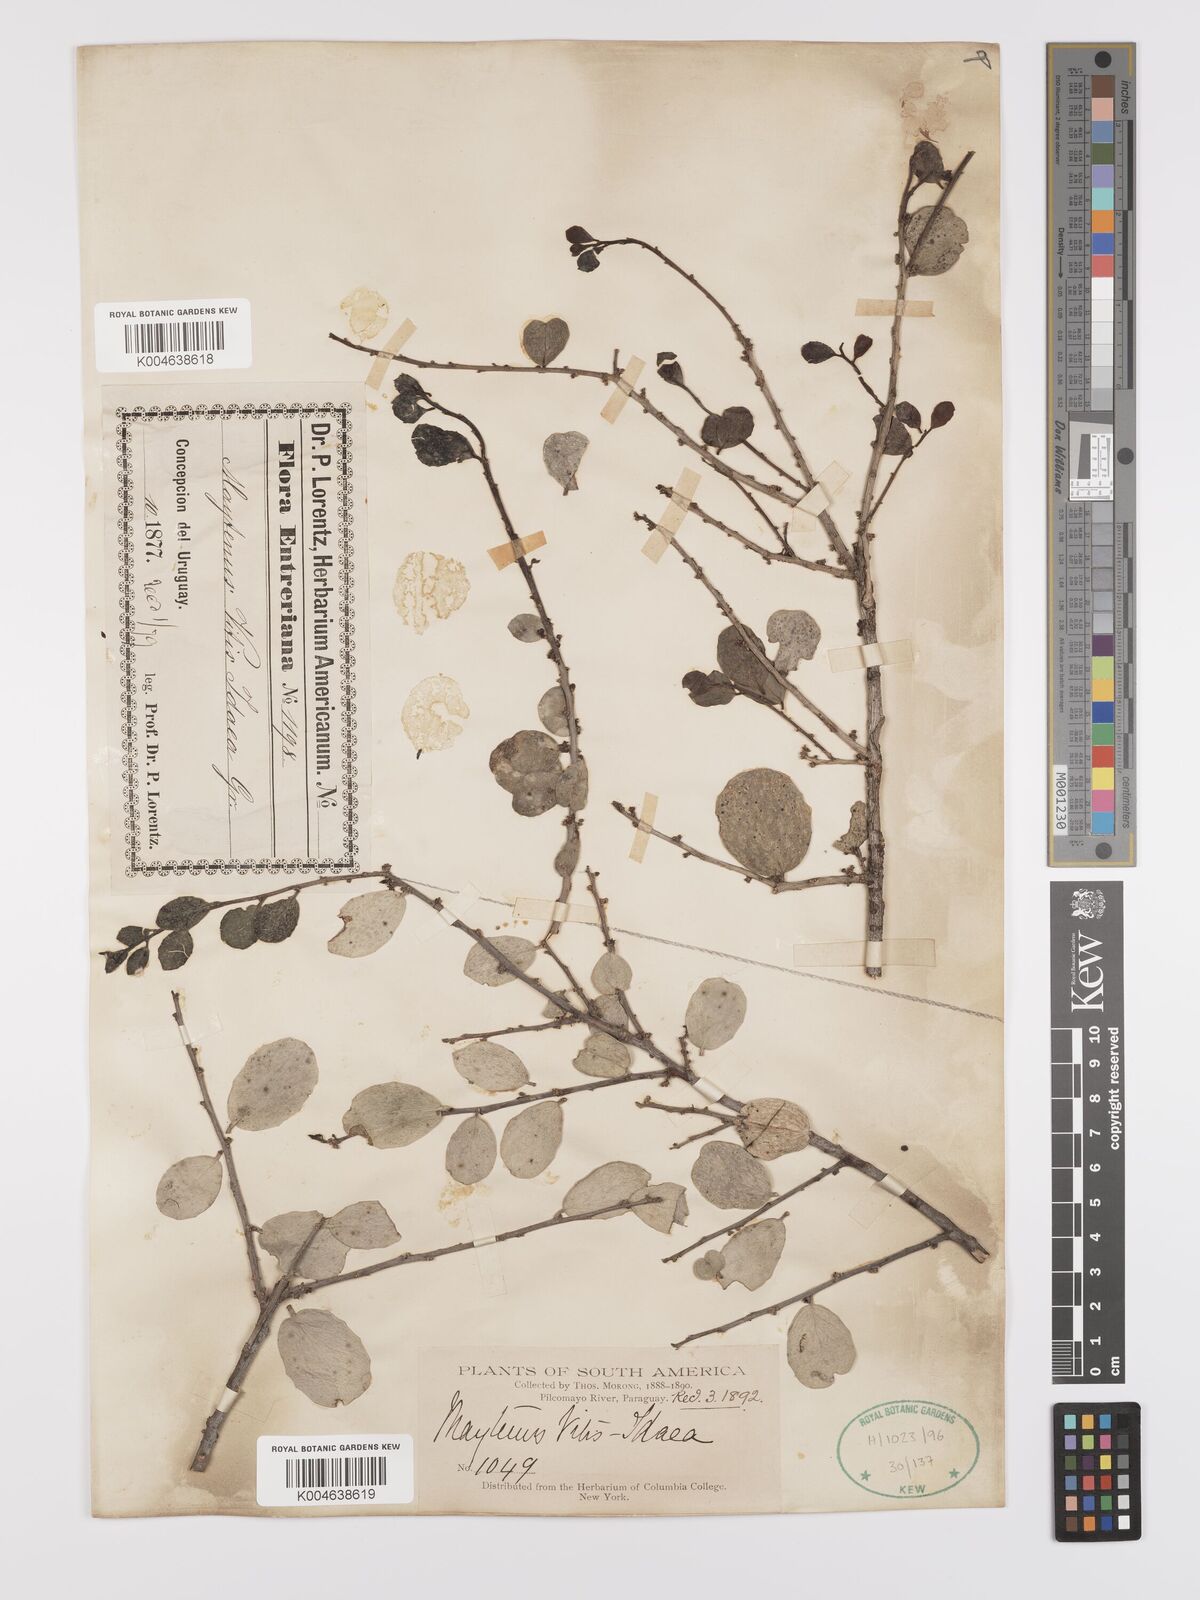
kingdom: Plantae
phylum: Tracheophyta
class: Magnoliopsida
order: Celastrales
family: Celastraceae
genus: Tricerma
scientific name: Tricerma vitis-idaeum
